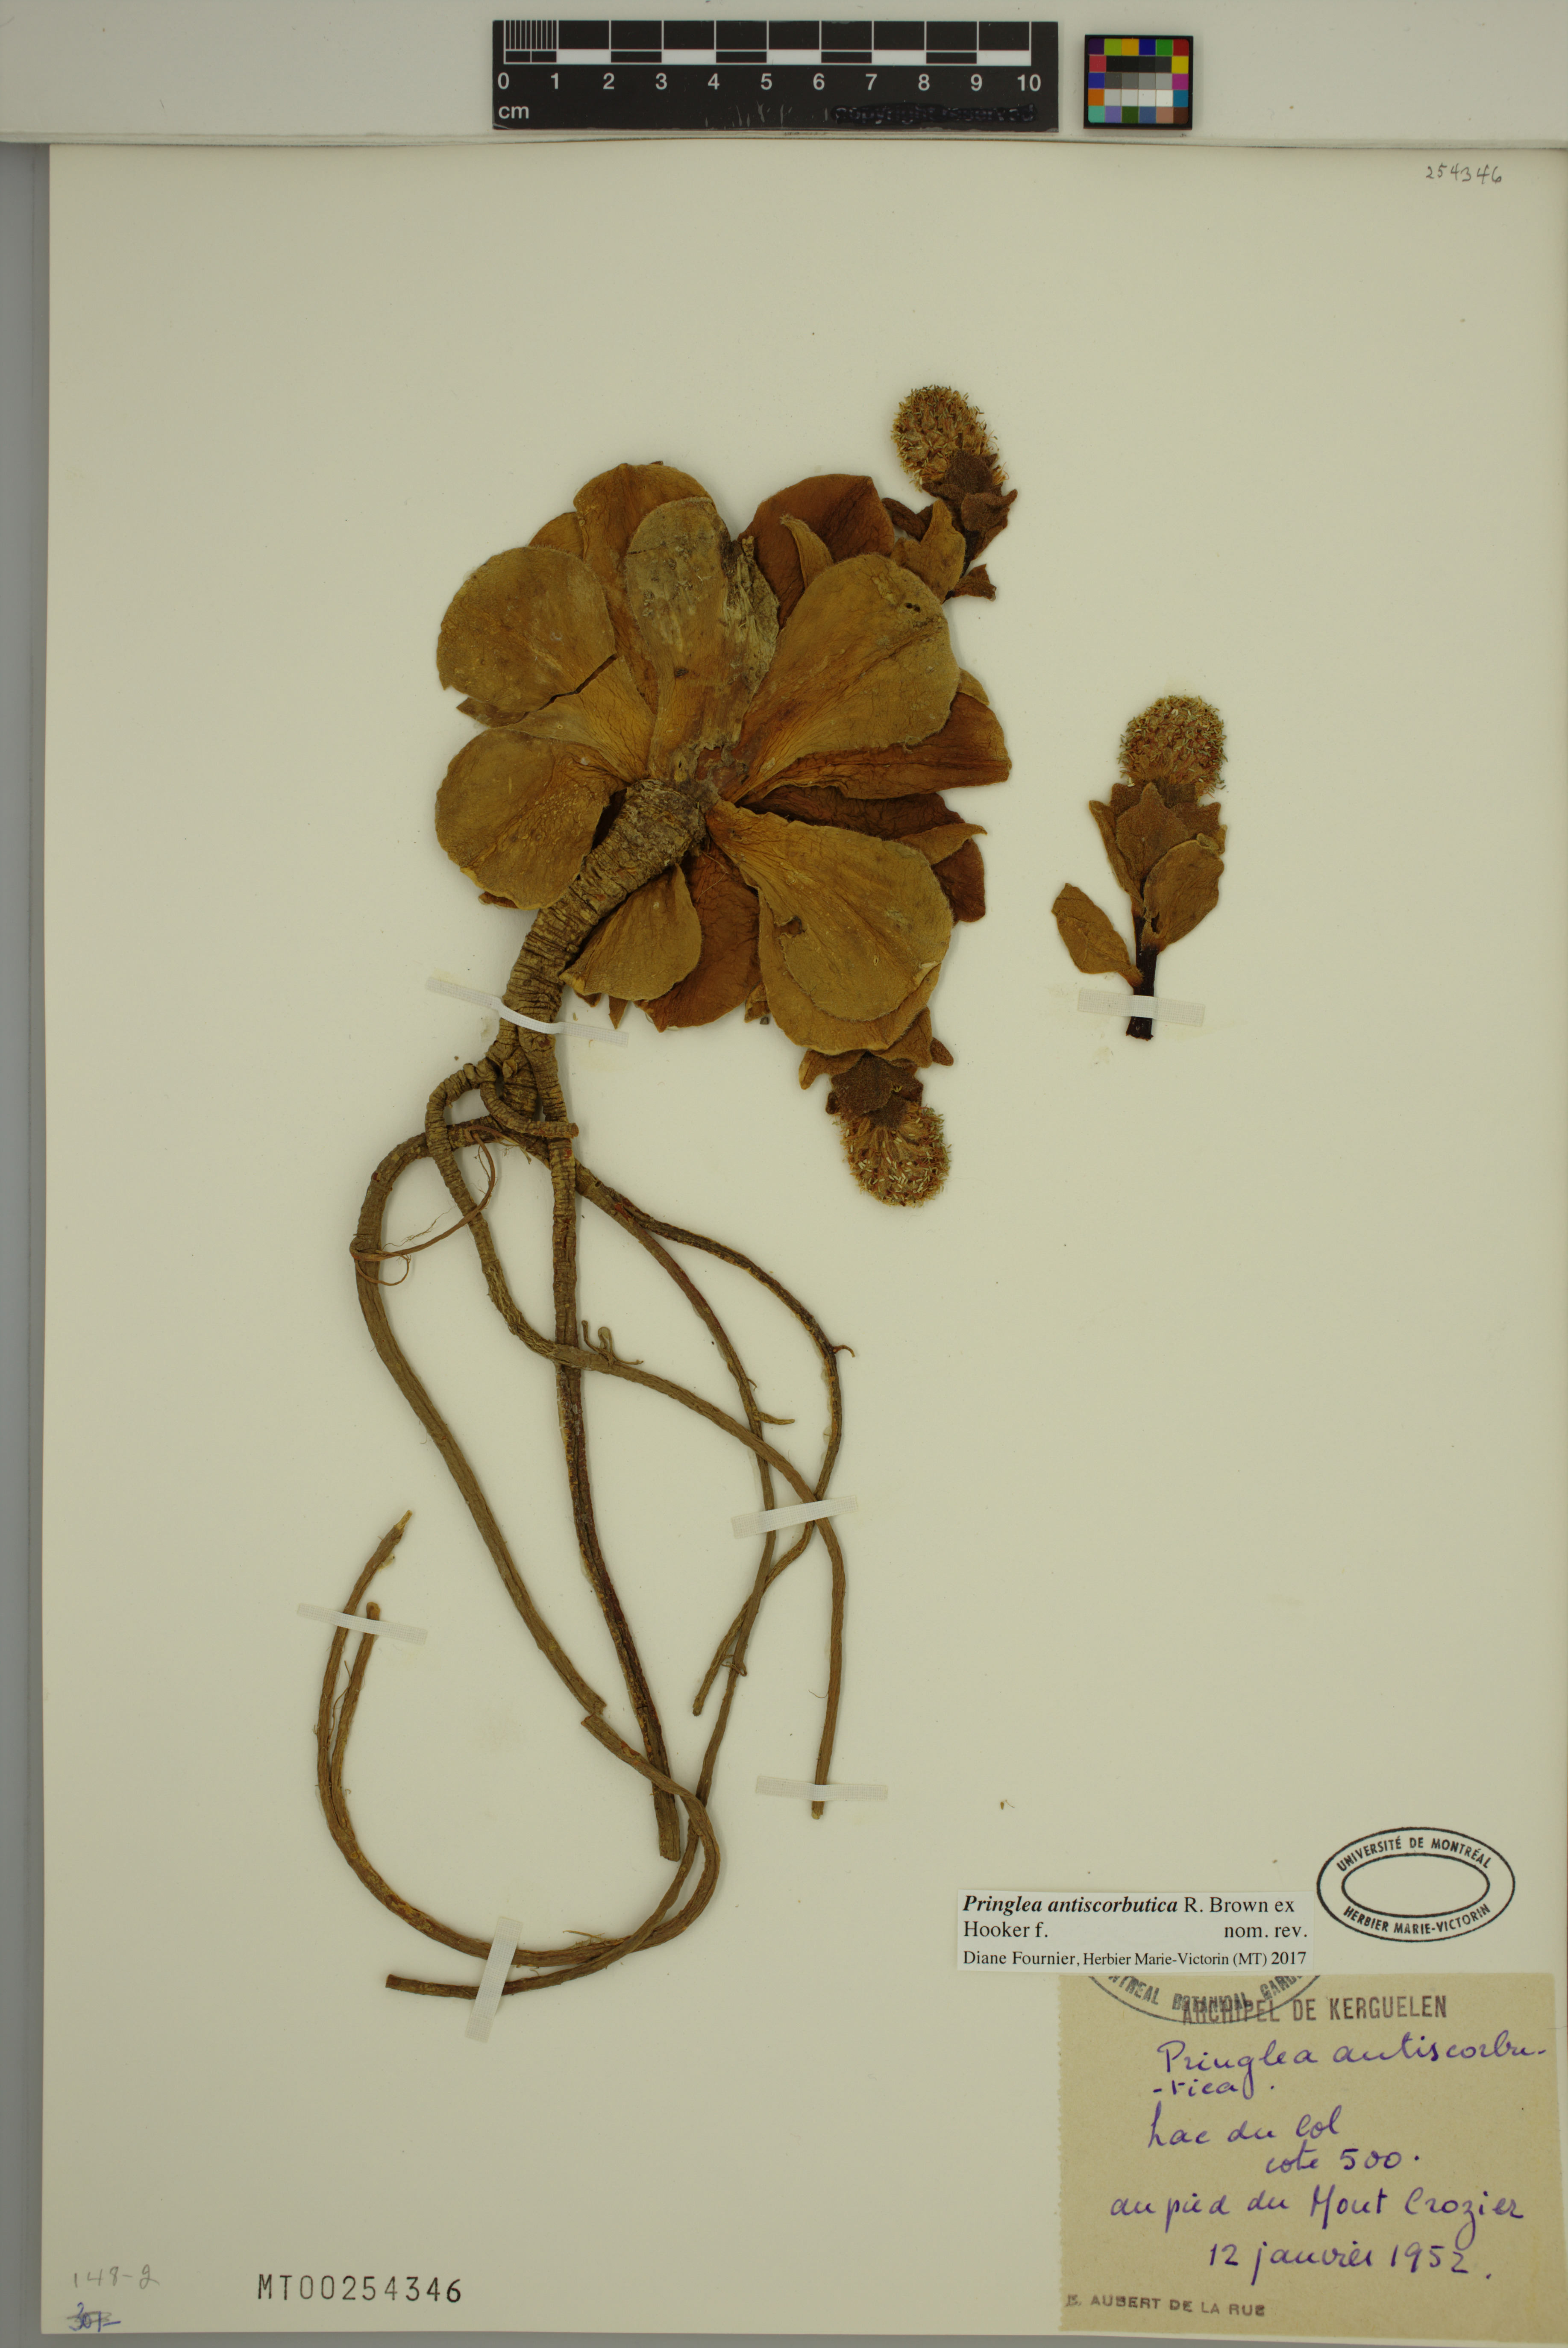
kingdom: Plantae
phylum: Tracheophyta
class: Magnoliopsida
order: Brassicales
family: Brassicaceae
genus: Pringlea
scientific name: Pringlea antiscorbutica
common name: Kerguelen-cabbage
